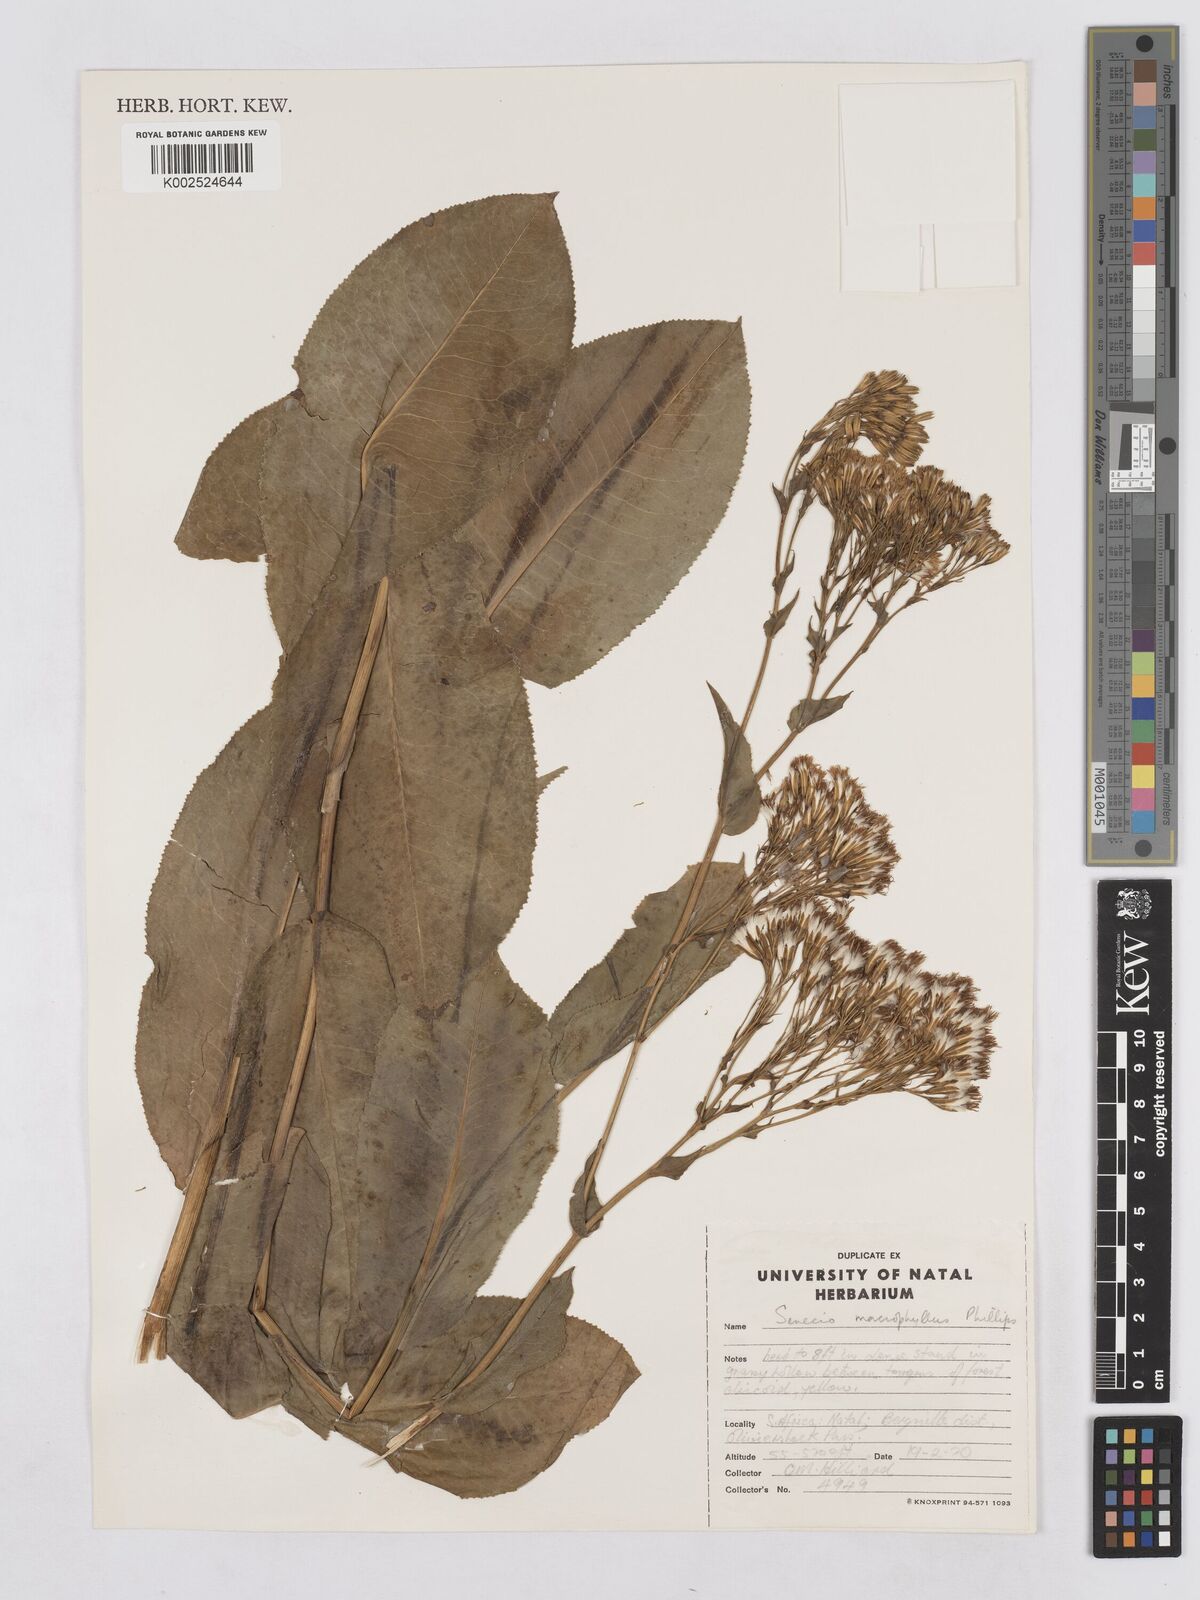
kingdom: Plantae
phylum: Tracheophyta
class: Magnoliopsida
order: Asterales
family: Asteraceae
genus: Senecio
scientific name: Senecio isatidoides
